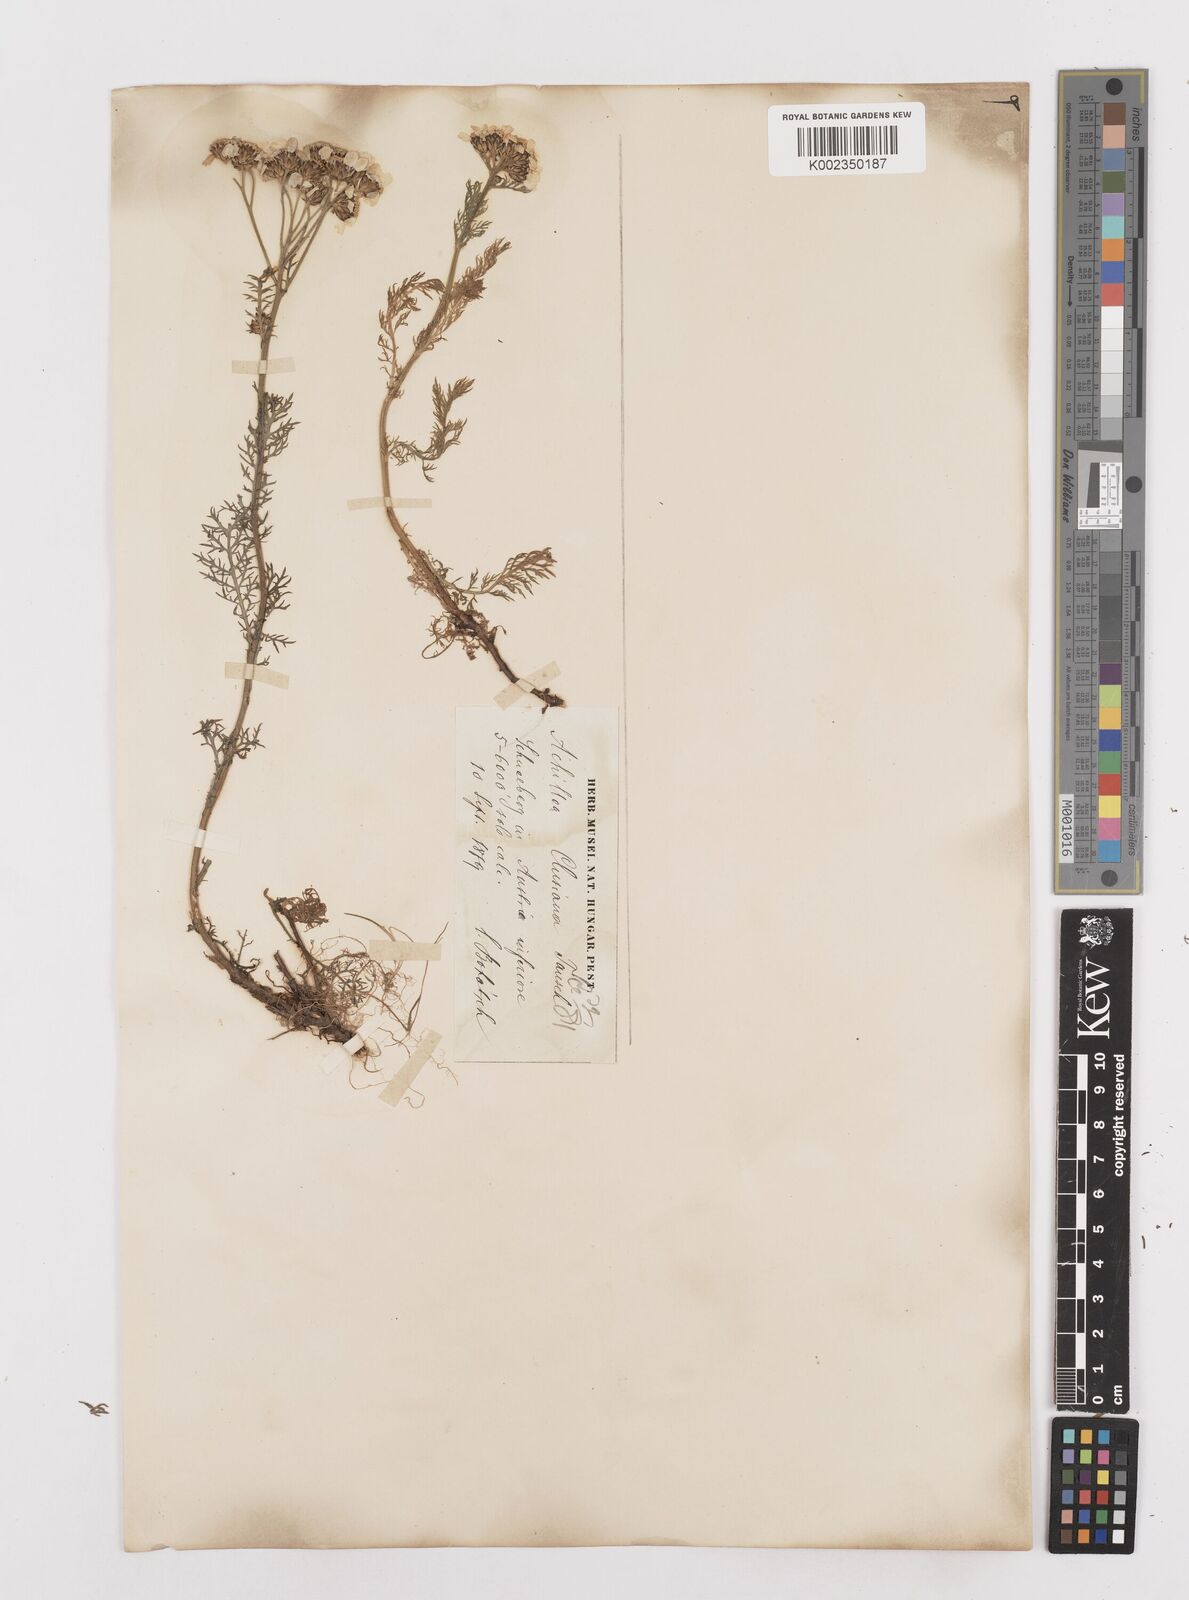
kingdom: Plantae
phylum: Tracheophyta
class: Magnoliopsida
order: Asterales
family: Asteraceae
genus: Achillea
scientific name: Achillea clusiana
